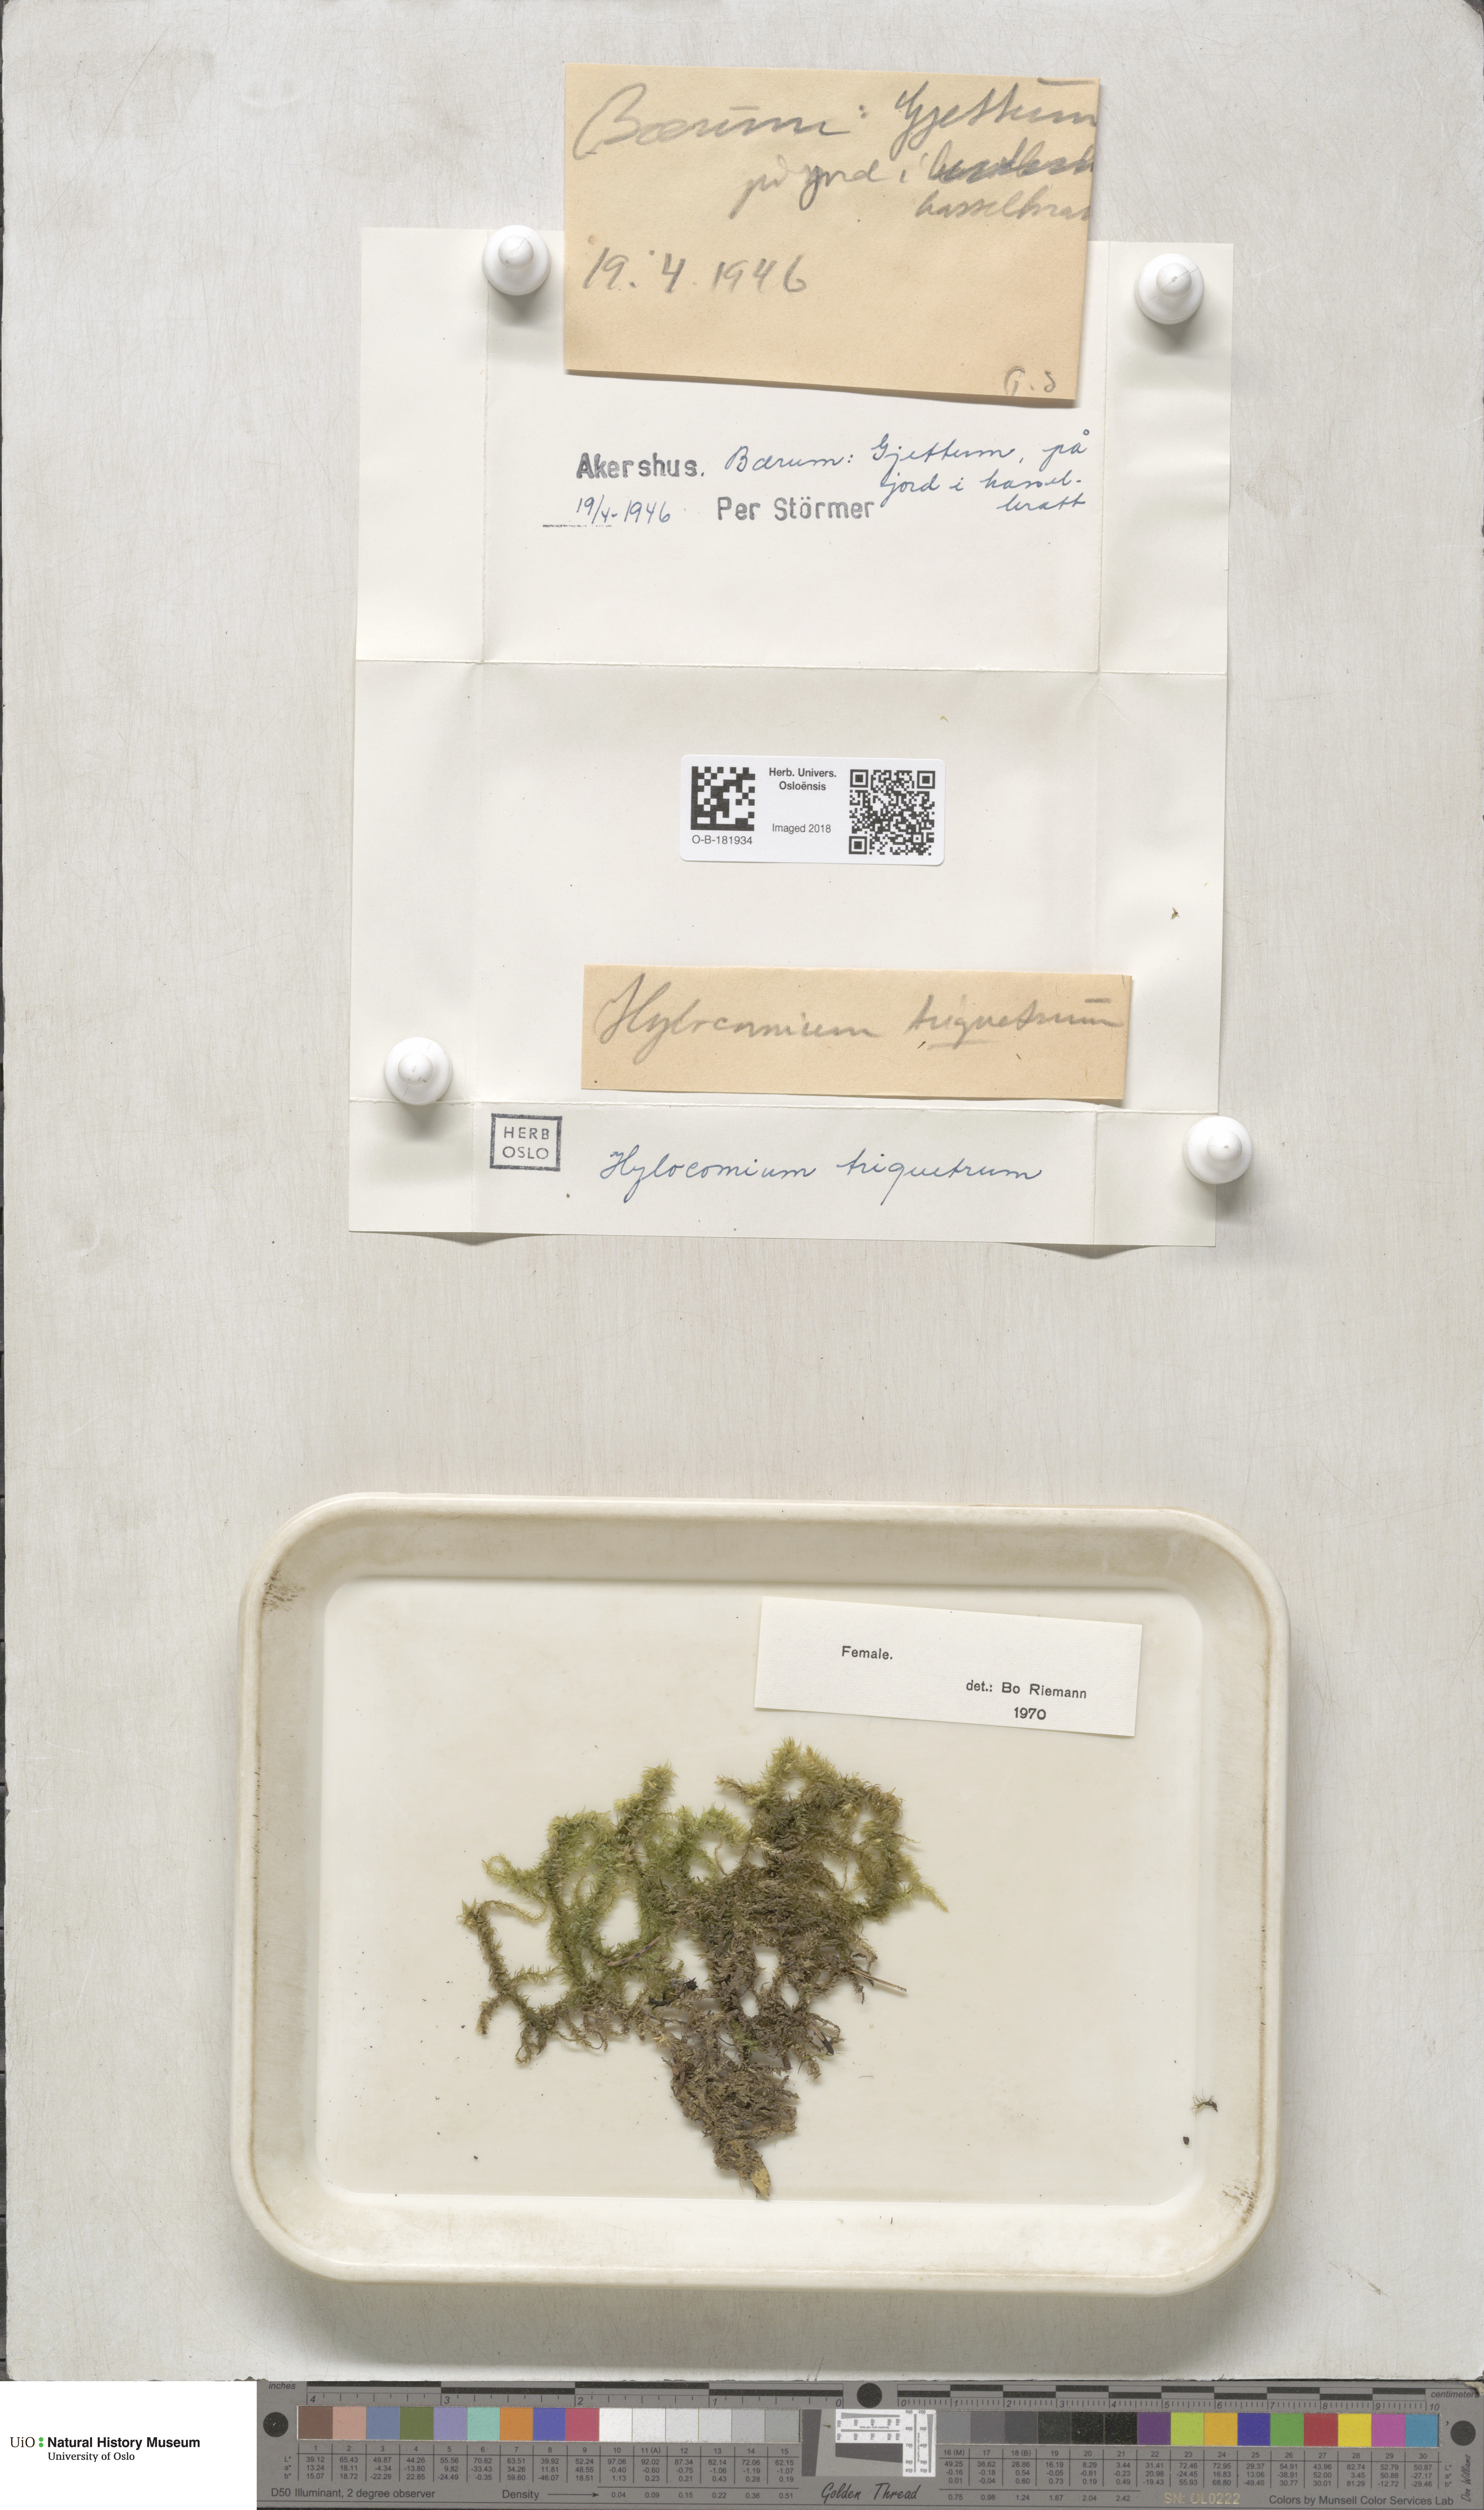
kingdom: Plantae
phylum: Bryophyta
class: Bryopsida
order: Hypnales
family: Hylocomiaceae
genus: Hylocomiadelphus
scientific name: Hylocomiadelphus triquetrus
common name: Rough goose neck moss
